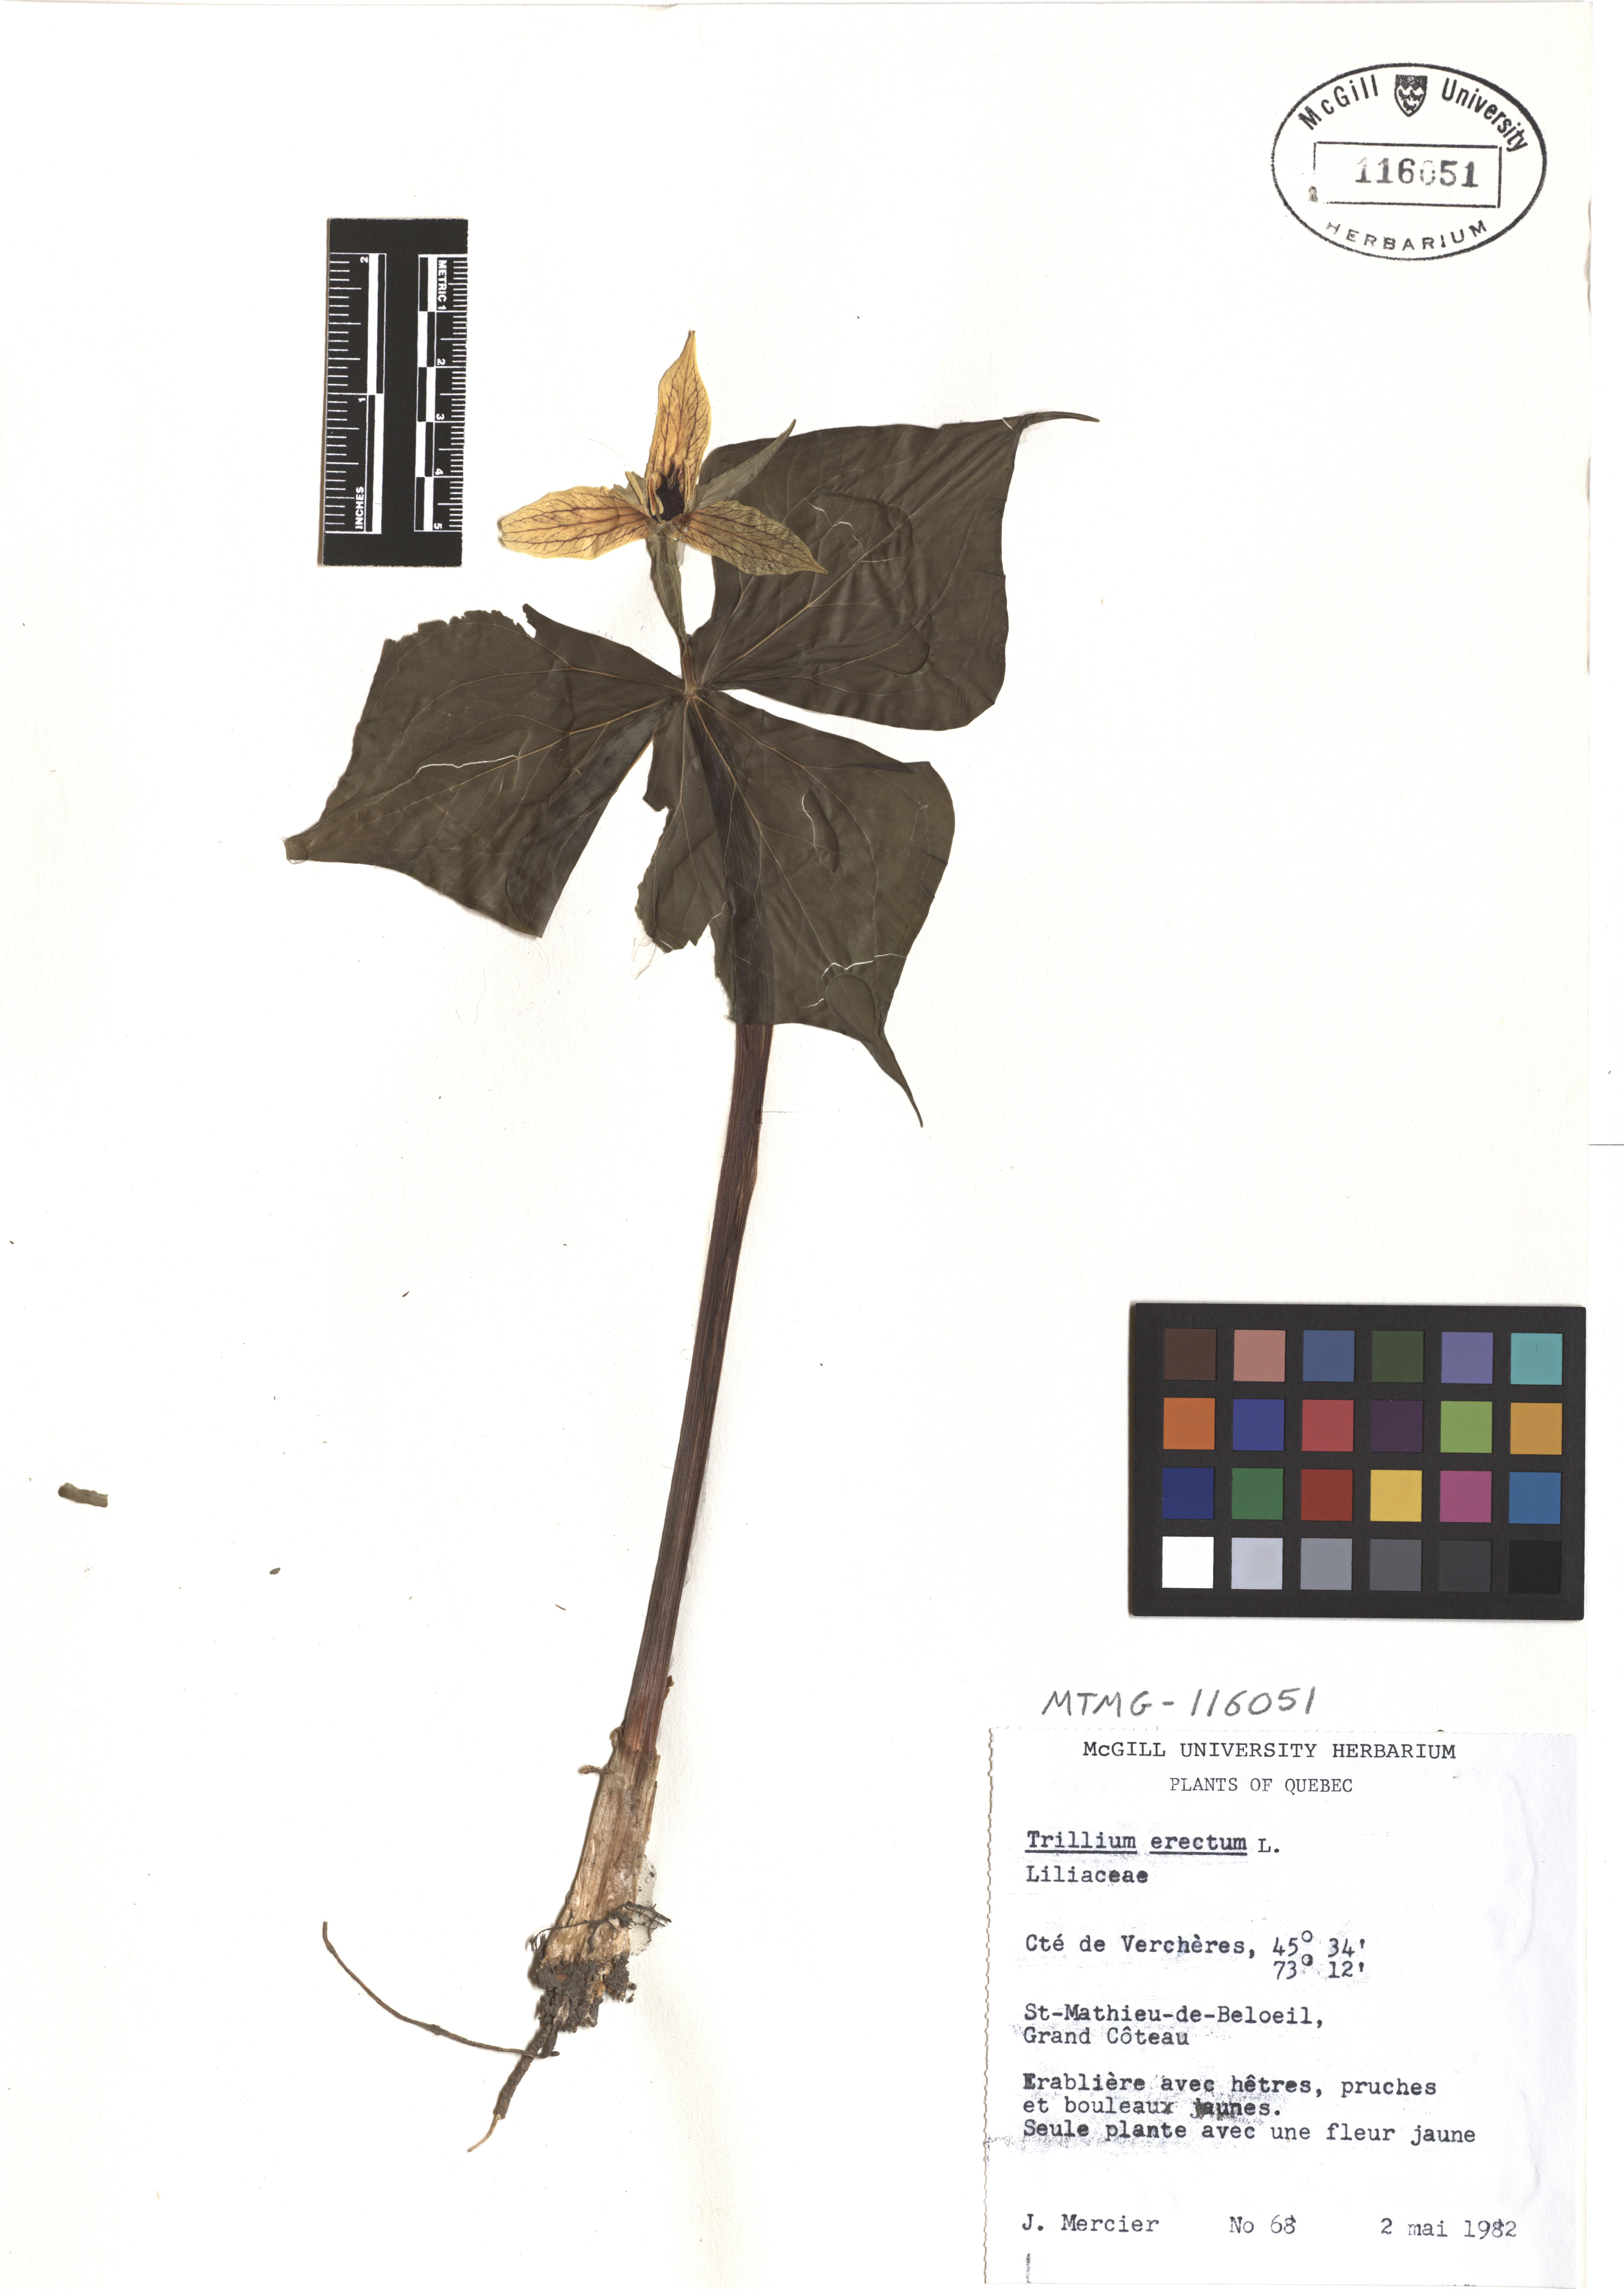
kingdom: Plantae
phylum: Tracheophyta
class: Liliopsida
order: Liliales
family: Melanthiaceae
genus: Trillium
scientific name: Trillium erectum
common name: Purple trillium
